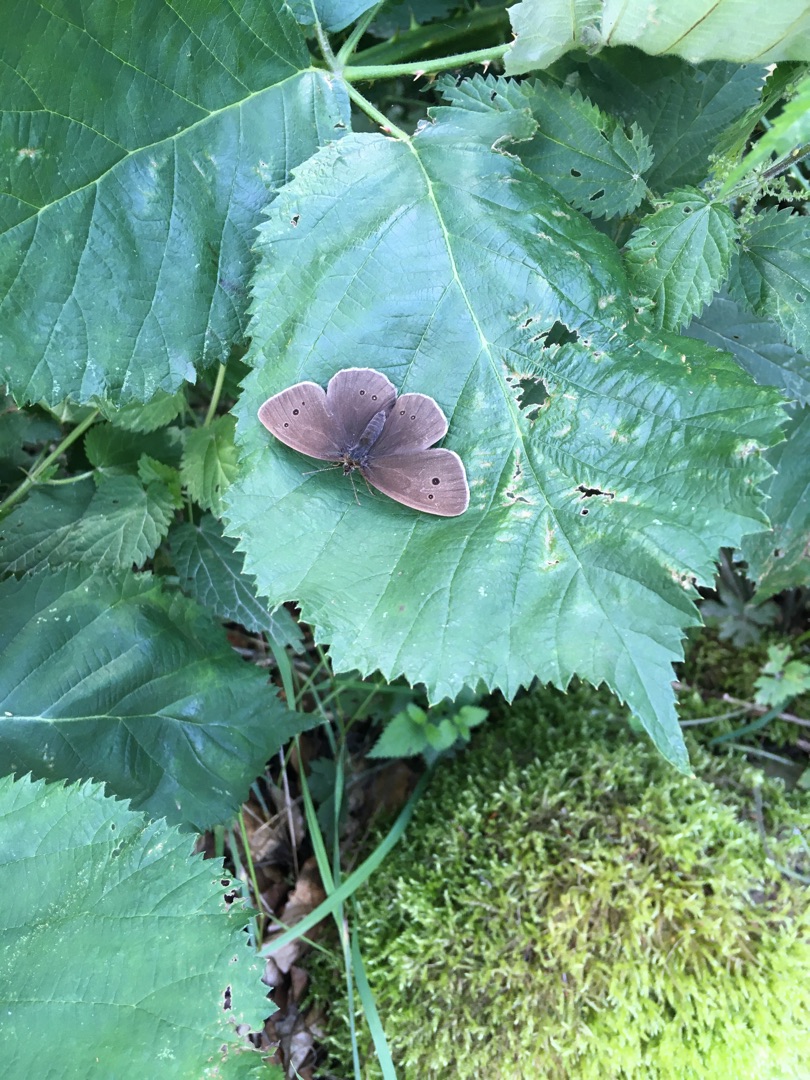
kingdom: Animalia
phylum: Arthropoda
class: Insecta
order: Lepidoptera
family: Nymphalidae
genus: Aphantopus
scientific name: Aphantopus hyperantus
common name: Engrandøje
